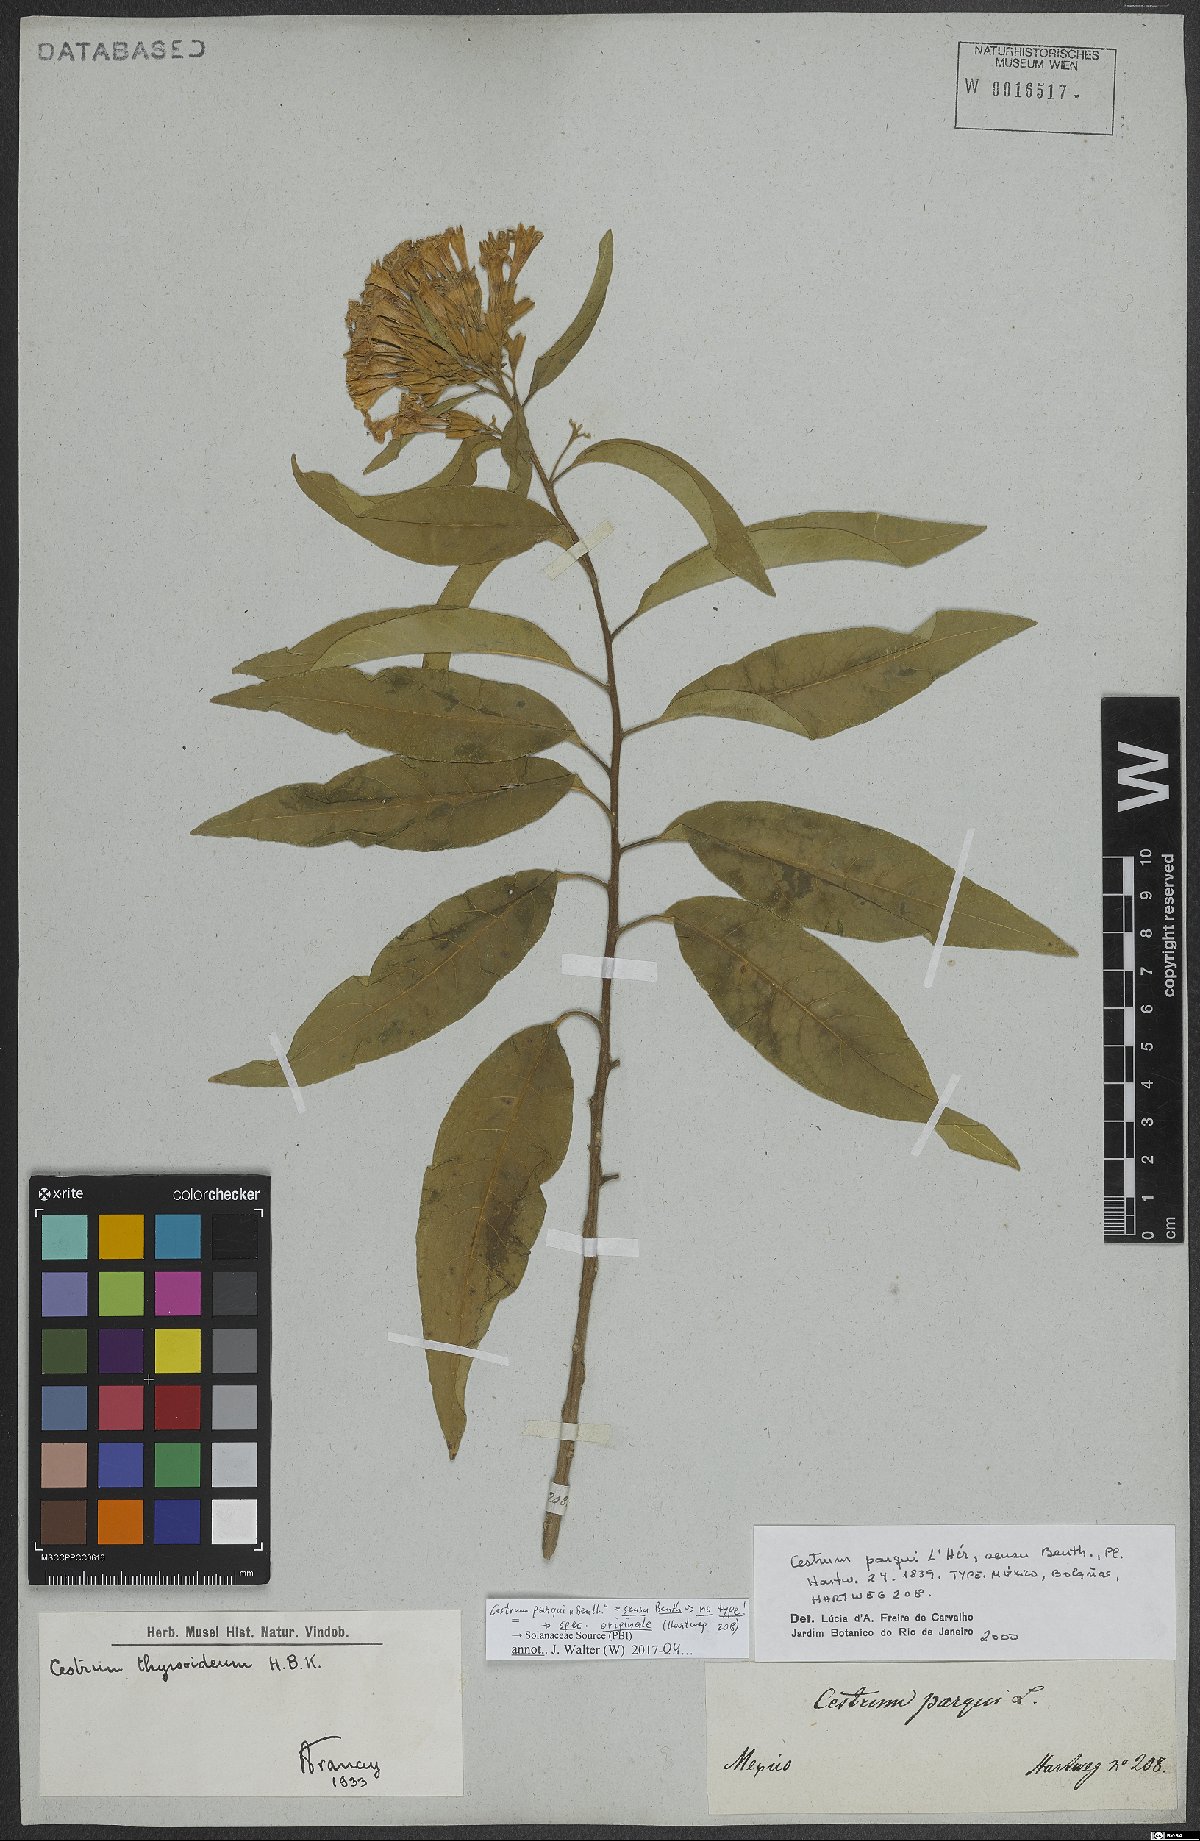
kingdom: Plantae
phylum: Tracheophyta
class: Magnoliopsida
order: Solanales
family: Solanaceae
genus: Cestrum
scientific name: Cestrum thyrsoideum
